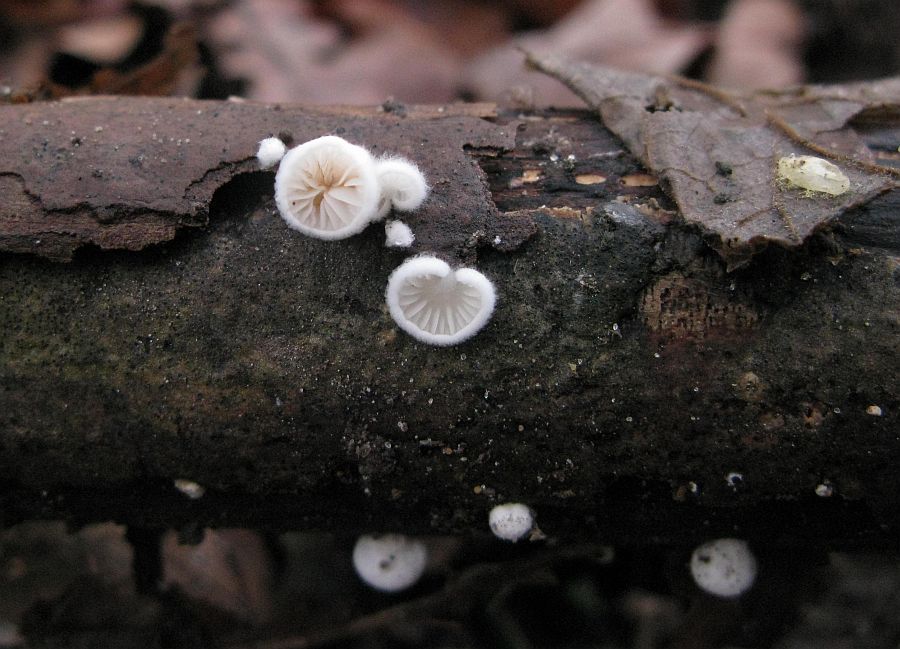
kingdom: Fungi
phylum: Basidiomycota
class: Agaricomycetes
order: Agaricales
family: Crepidotaceae
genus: Crepidotus
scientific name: Crepidotus cesatii
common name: almindelig muslingesvamp
